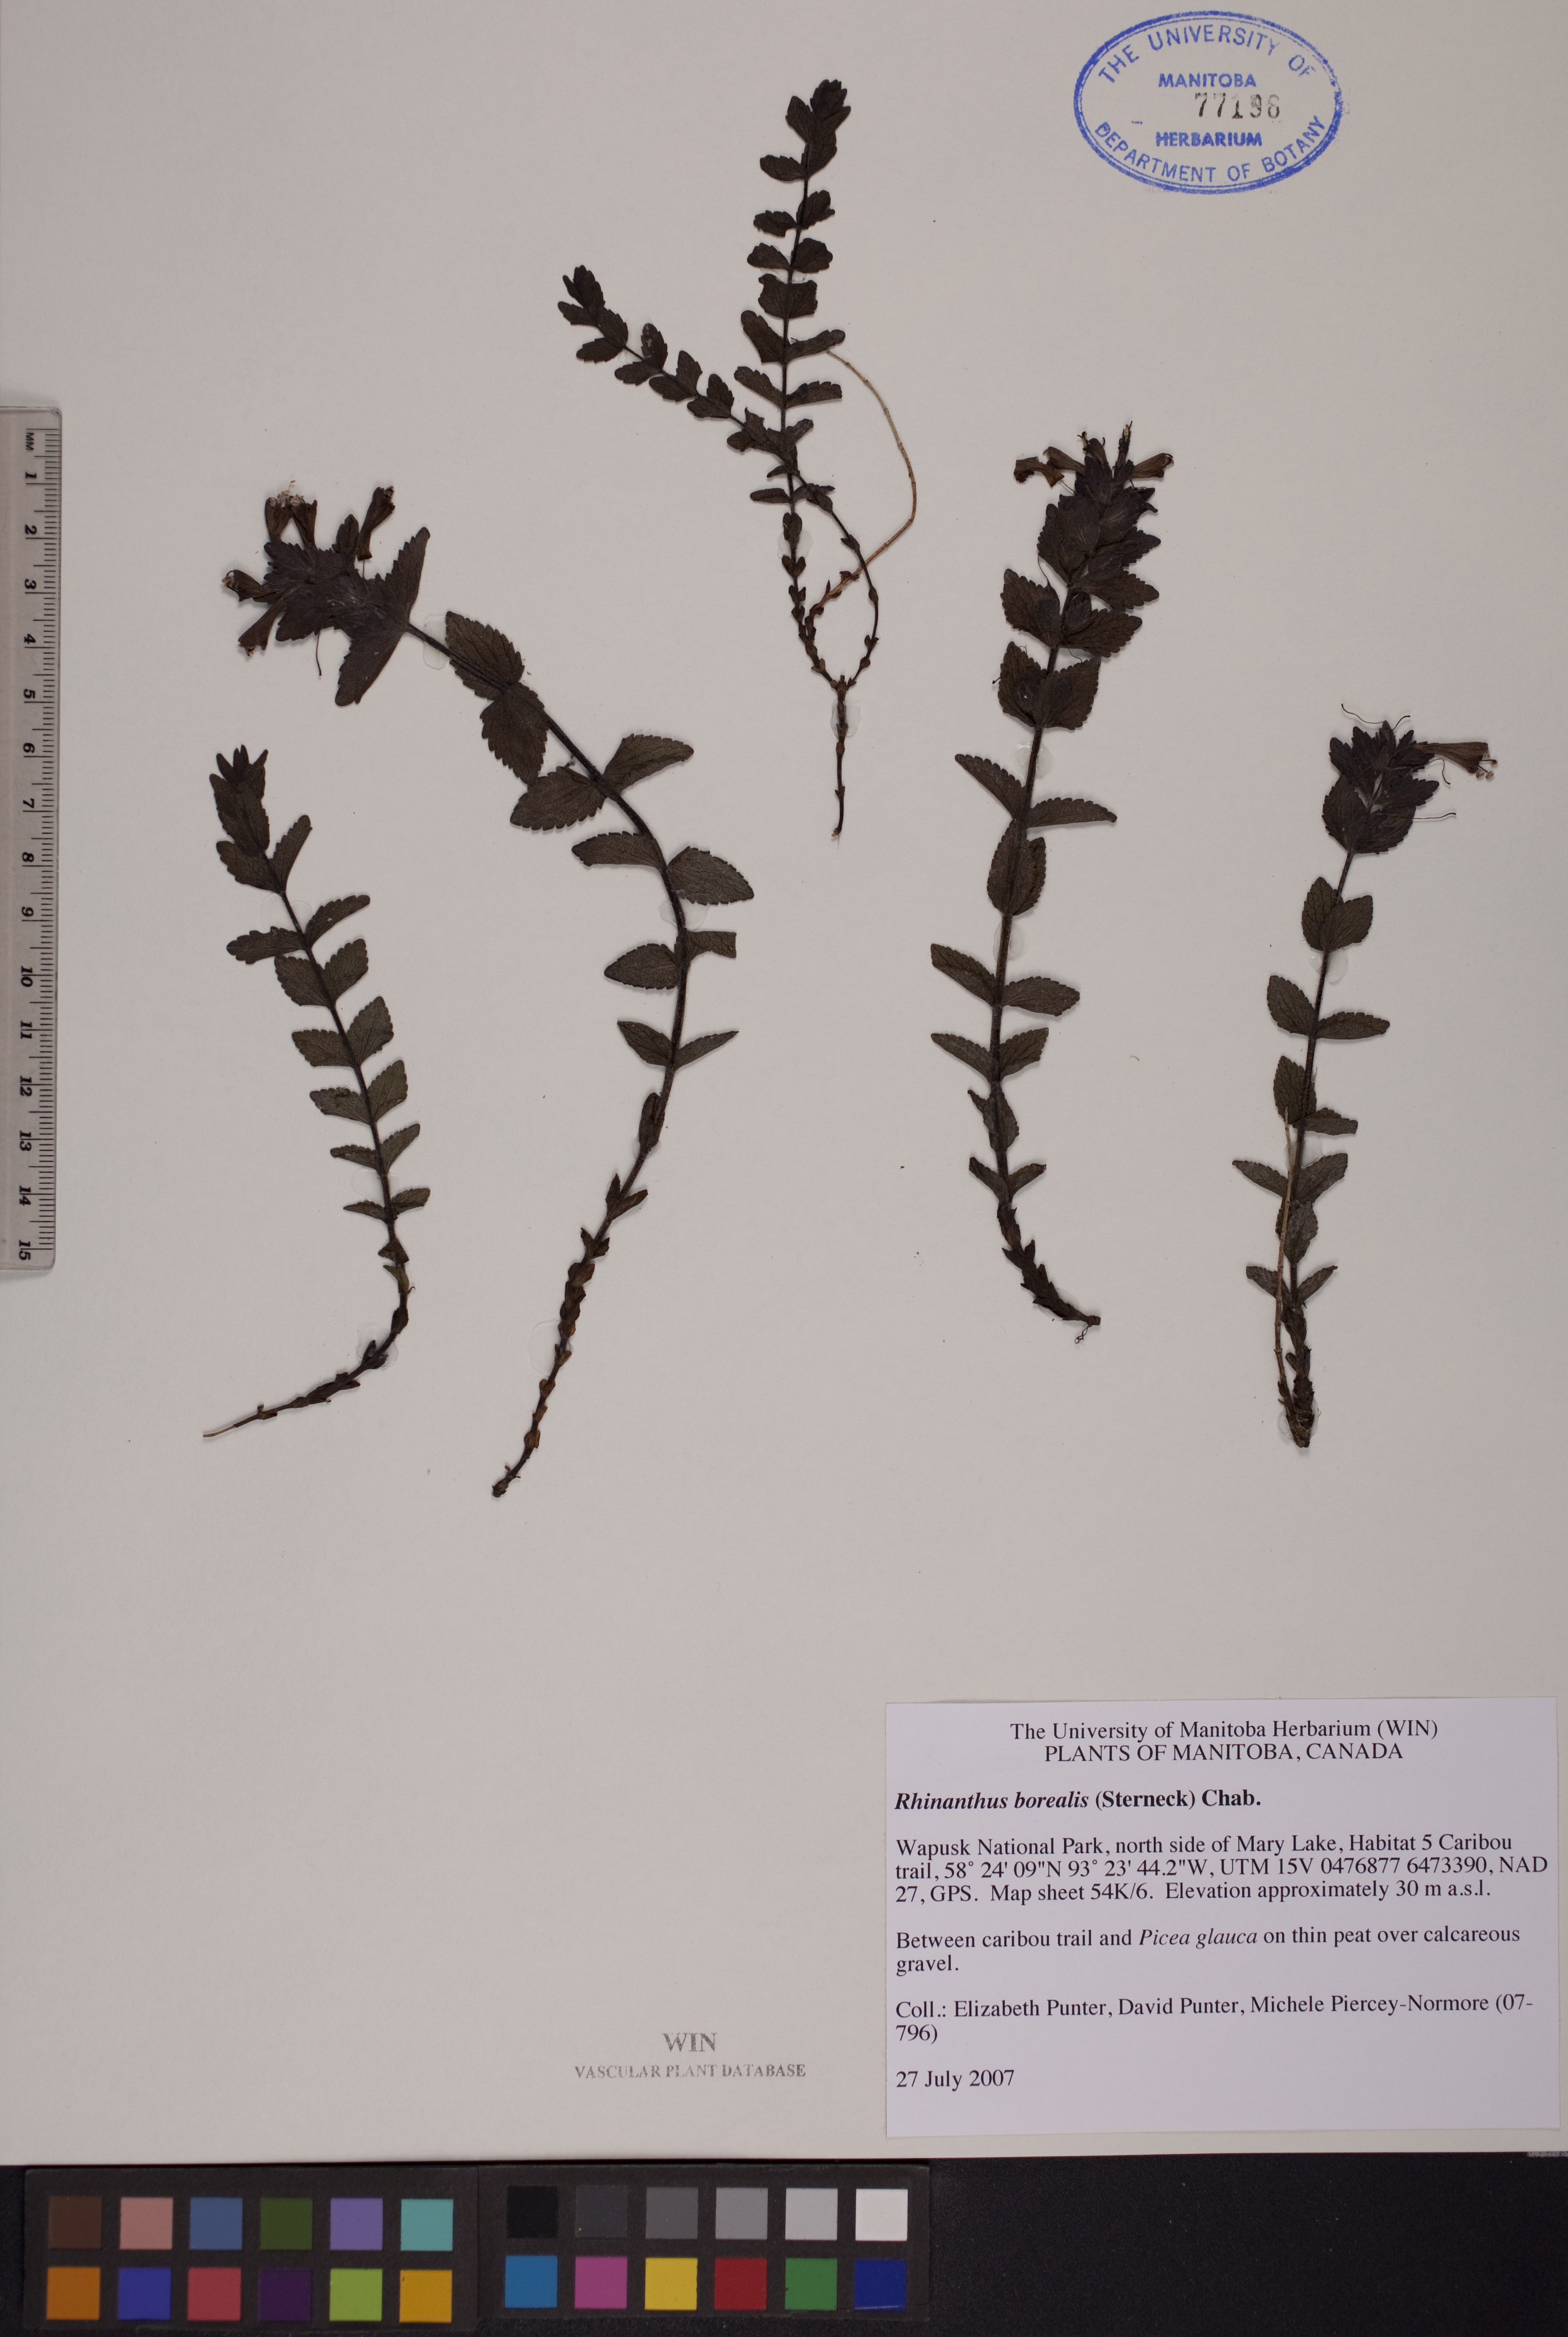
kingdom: Plantae
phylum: Tracheophyta
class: Magnoliopsida
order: Lamiales
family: Orobanchaceae
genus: Rhinanthus
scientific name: Rhinanthus groenlandicus
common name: Little yellow rattle
